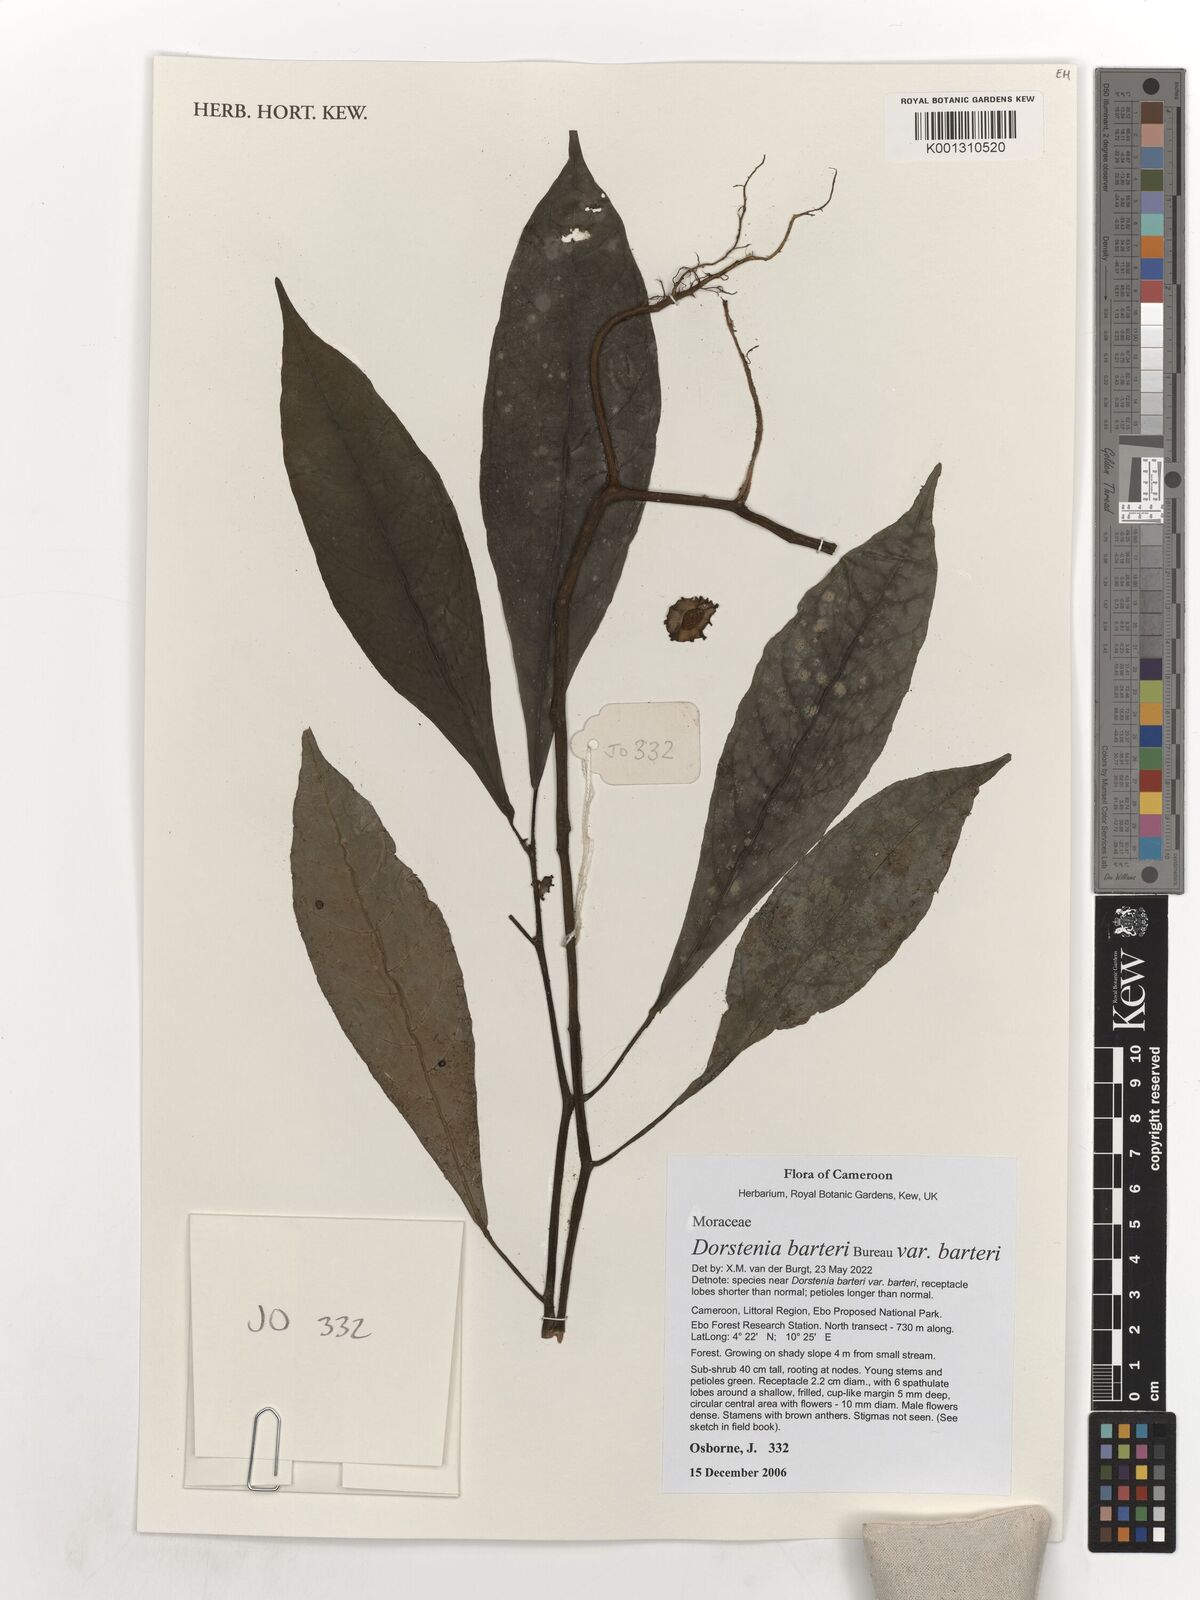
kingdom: Plantae
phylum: Tracheophyta
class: Magnoliopsida
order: Rosales
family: Moraceae
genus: Dorstenia
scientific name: Dorstenia barteri
